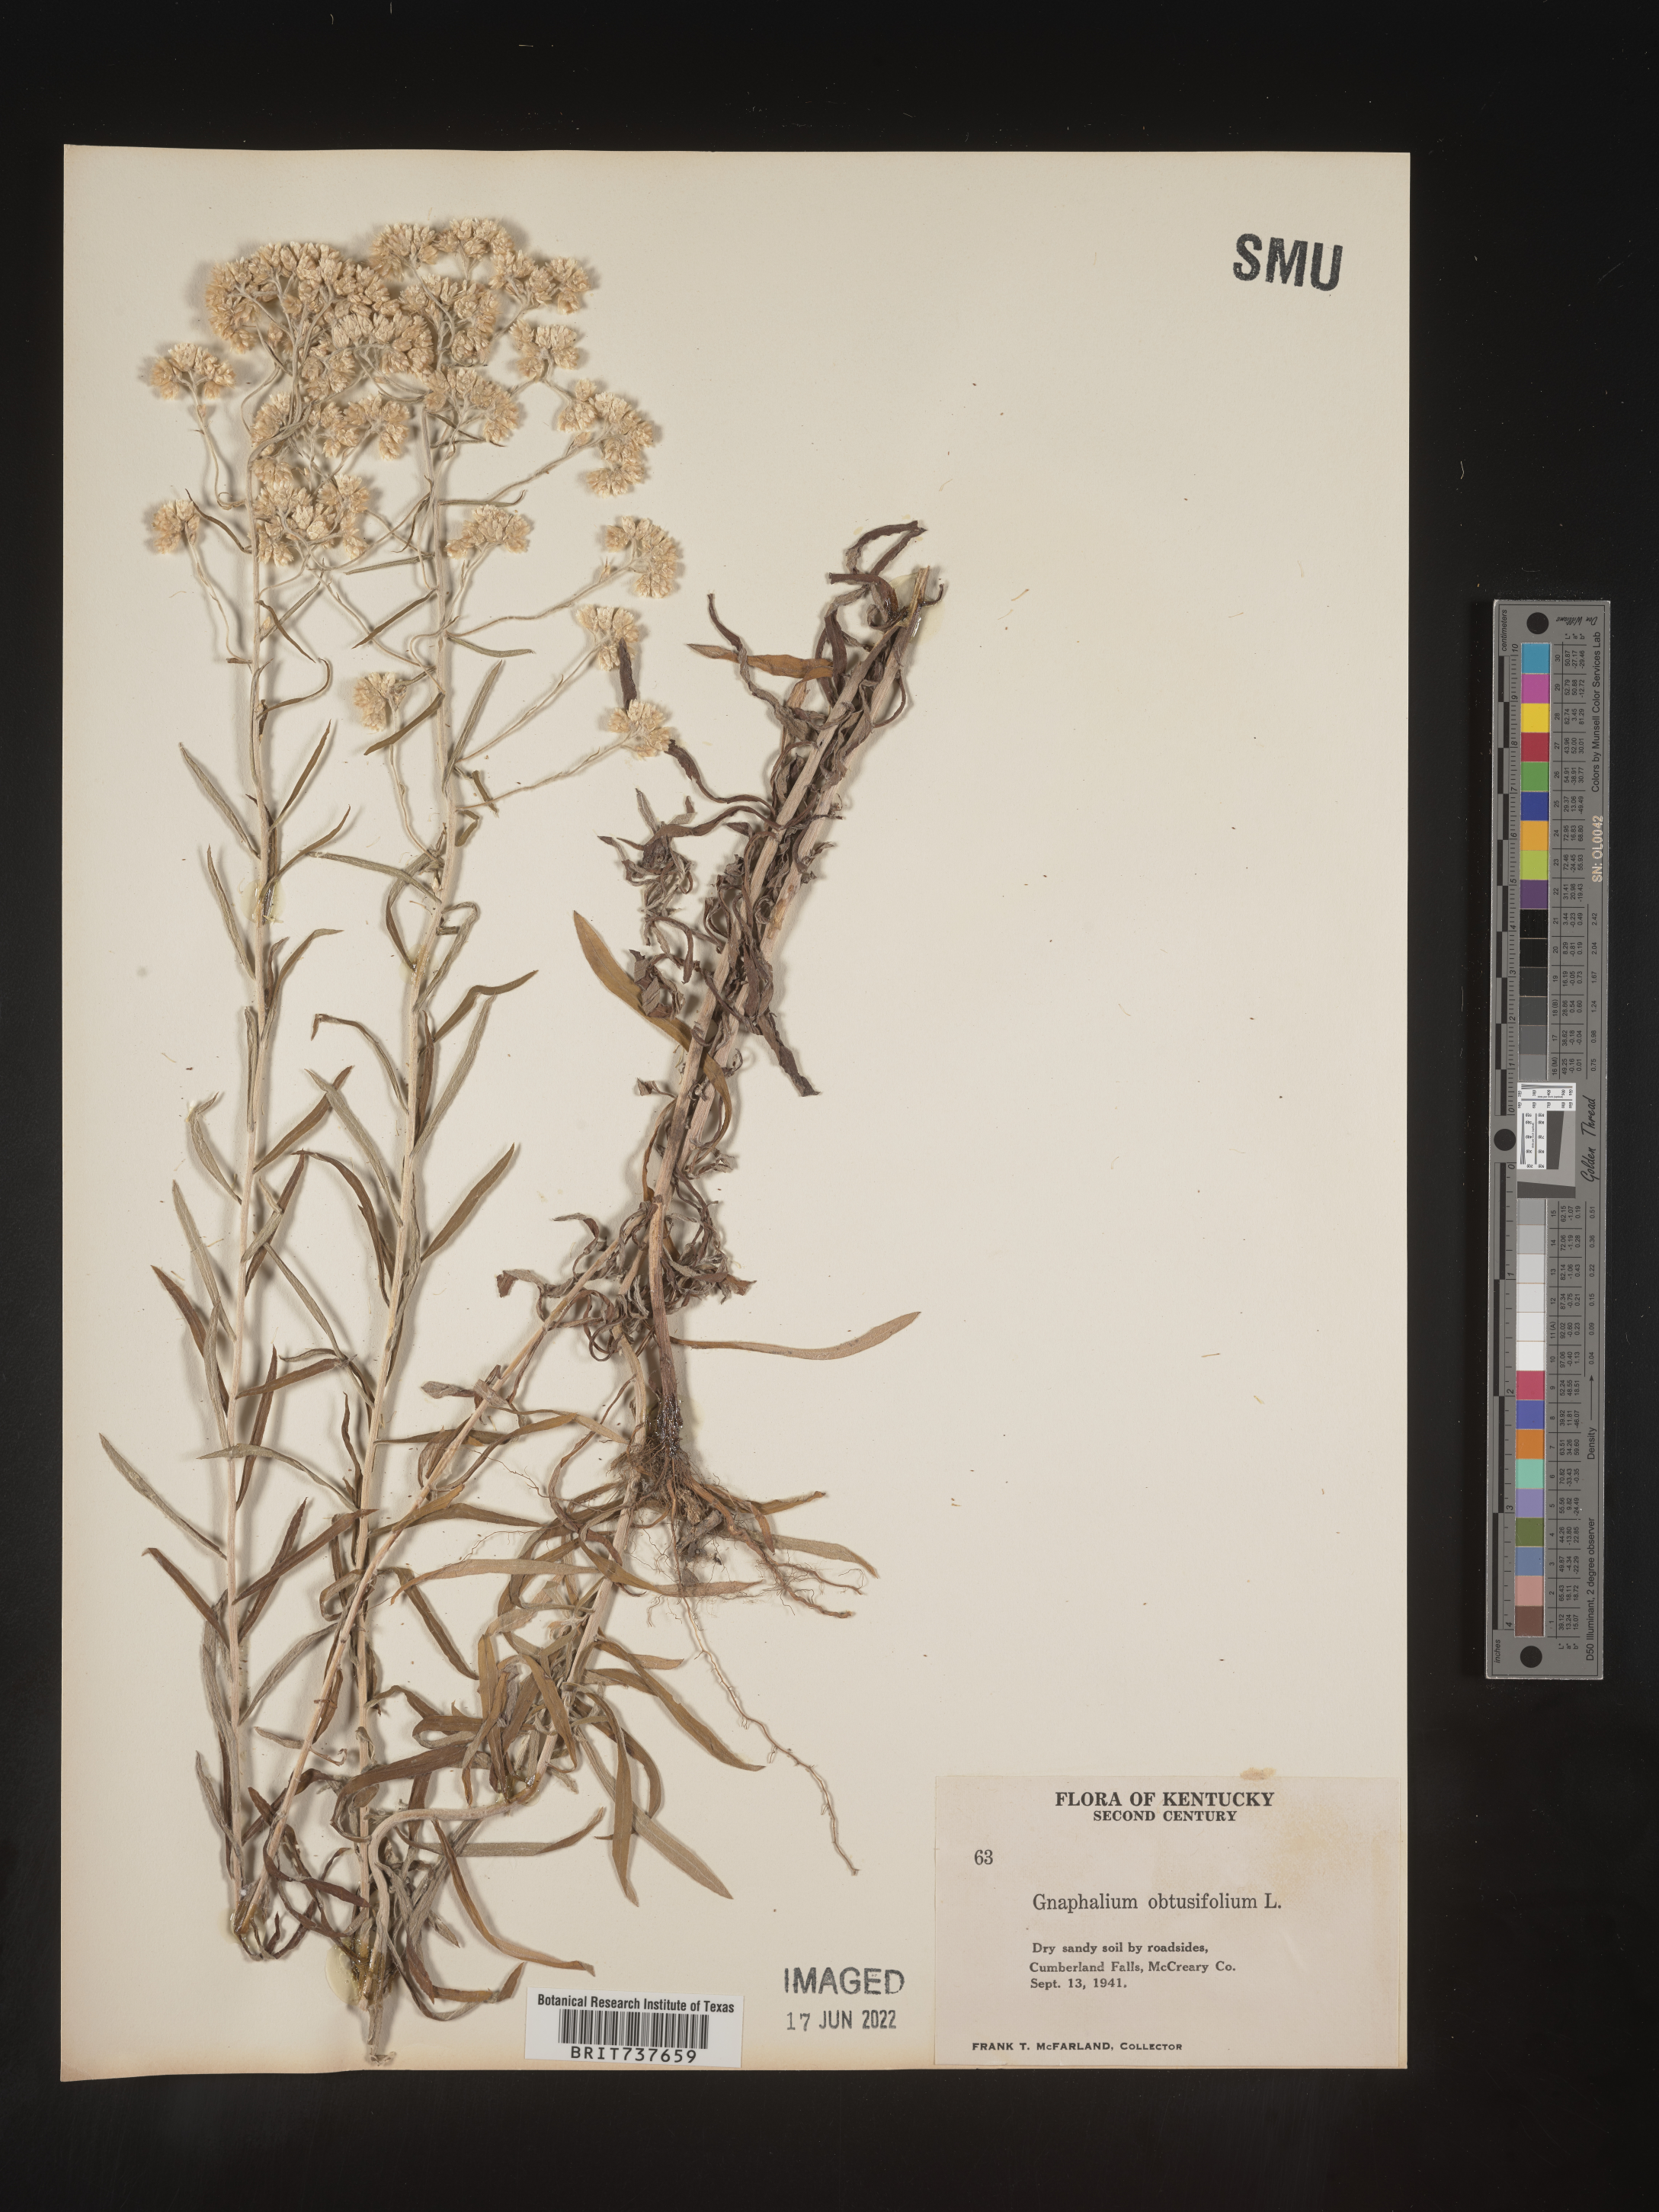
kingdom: Plantae
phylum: Tracheophyta
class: Magnoliopsida
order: Asterales
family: Asteraceae
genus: Pseudognaphalium
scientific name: Pseudognaphalium obtusifolium
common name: Eastern rabbit-tobacco
